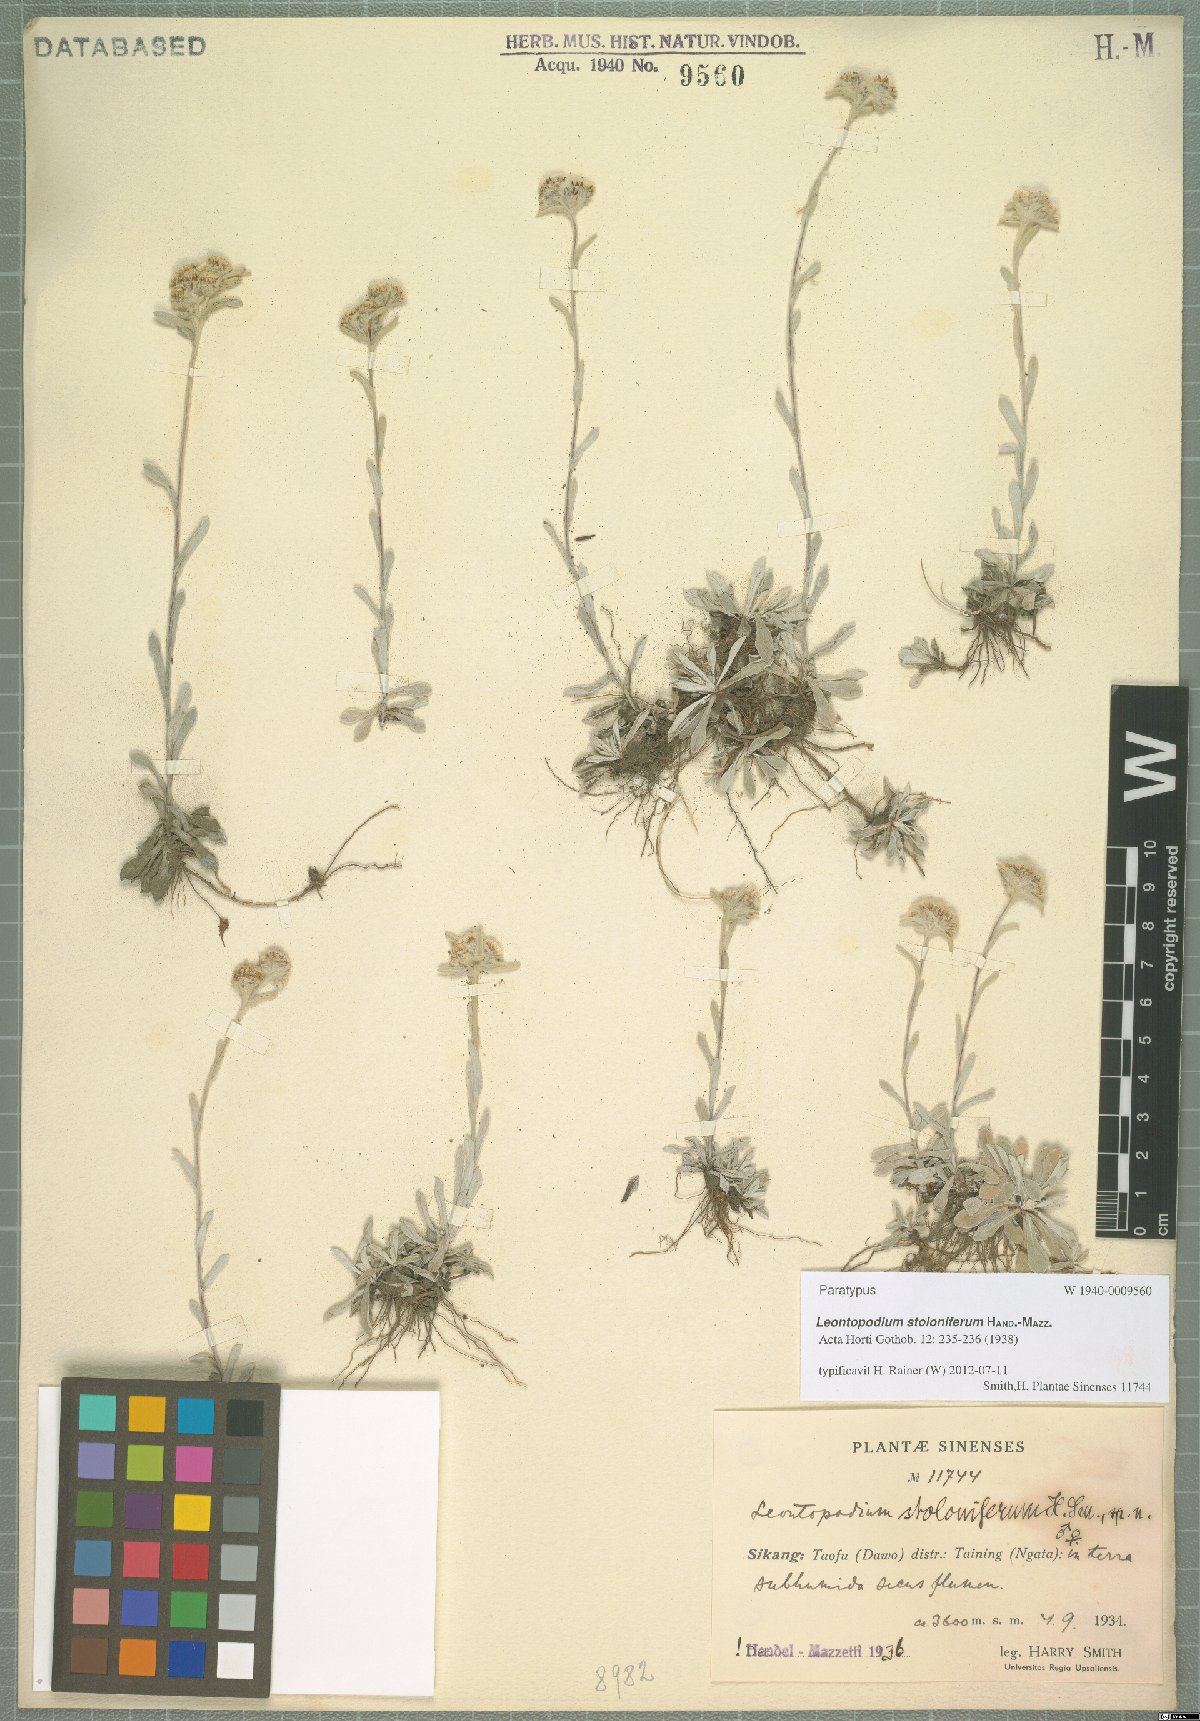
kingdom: Plantae
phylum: Tracheophyta
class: Magnoliopsida
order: Asterales
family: Asteraceae
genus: Leontopodium
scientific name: Leontopodium stoloniferum
